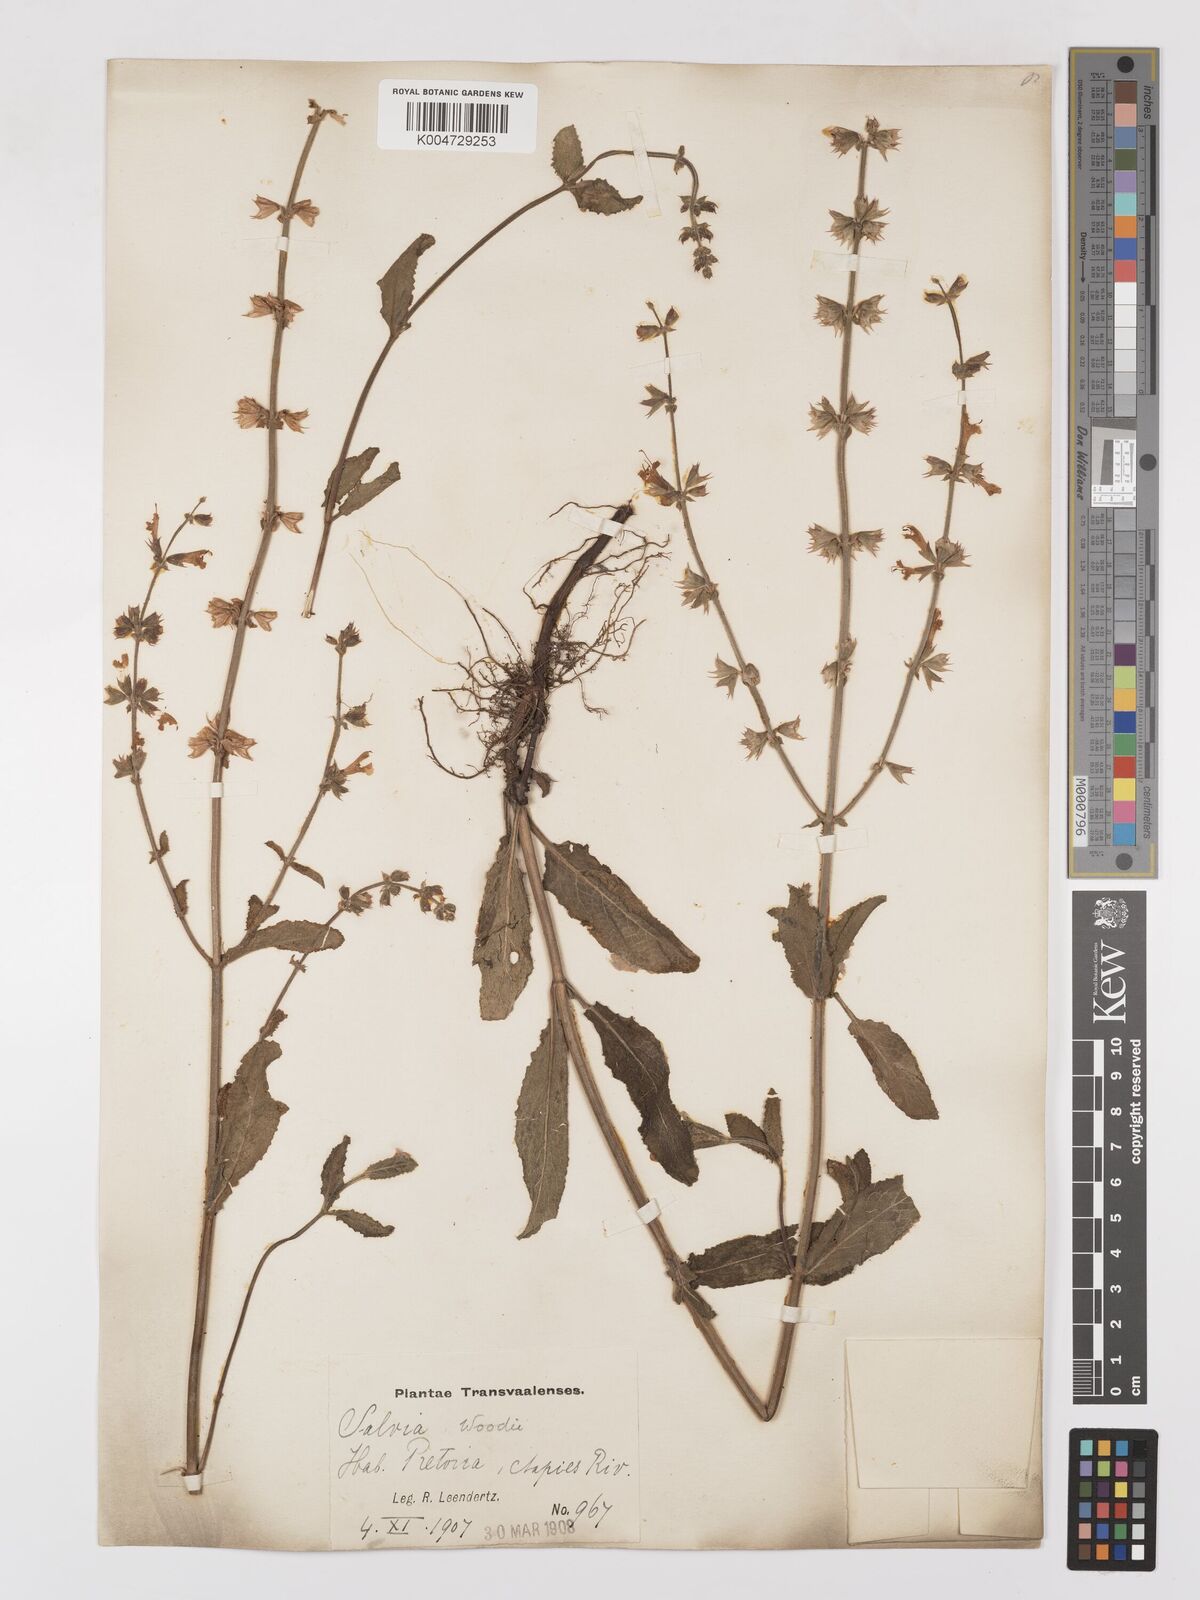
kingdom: Plantae
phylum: Tracheophyta
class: Magnoliopsida
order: Lamiales
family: Lamiaceae
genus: Salvia
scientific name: Salvia repens
